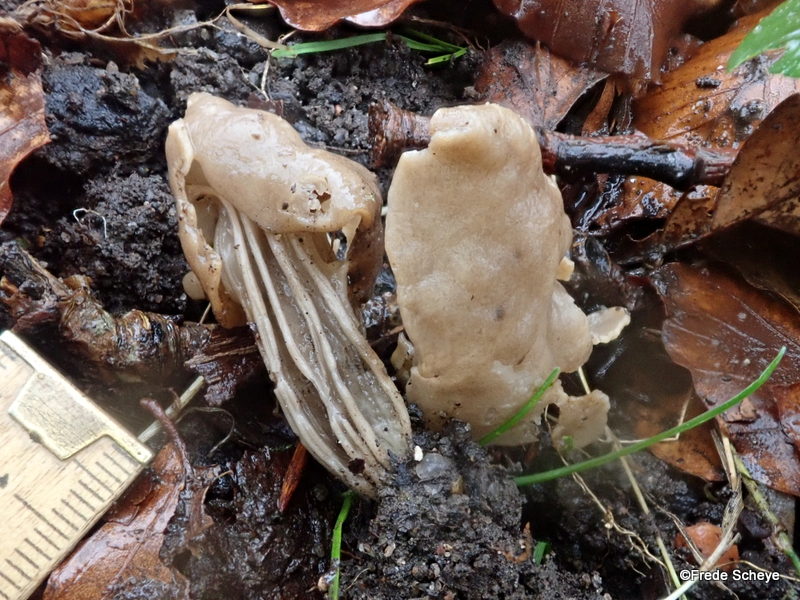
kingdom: Fungi
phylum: Ascomycota
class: Pezizomycetes
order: Pezizales
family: Helvellaceae
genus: Helvella
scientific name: Helvella lacunosa
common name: grubet foldhat
